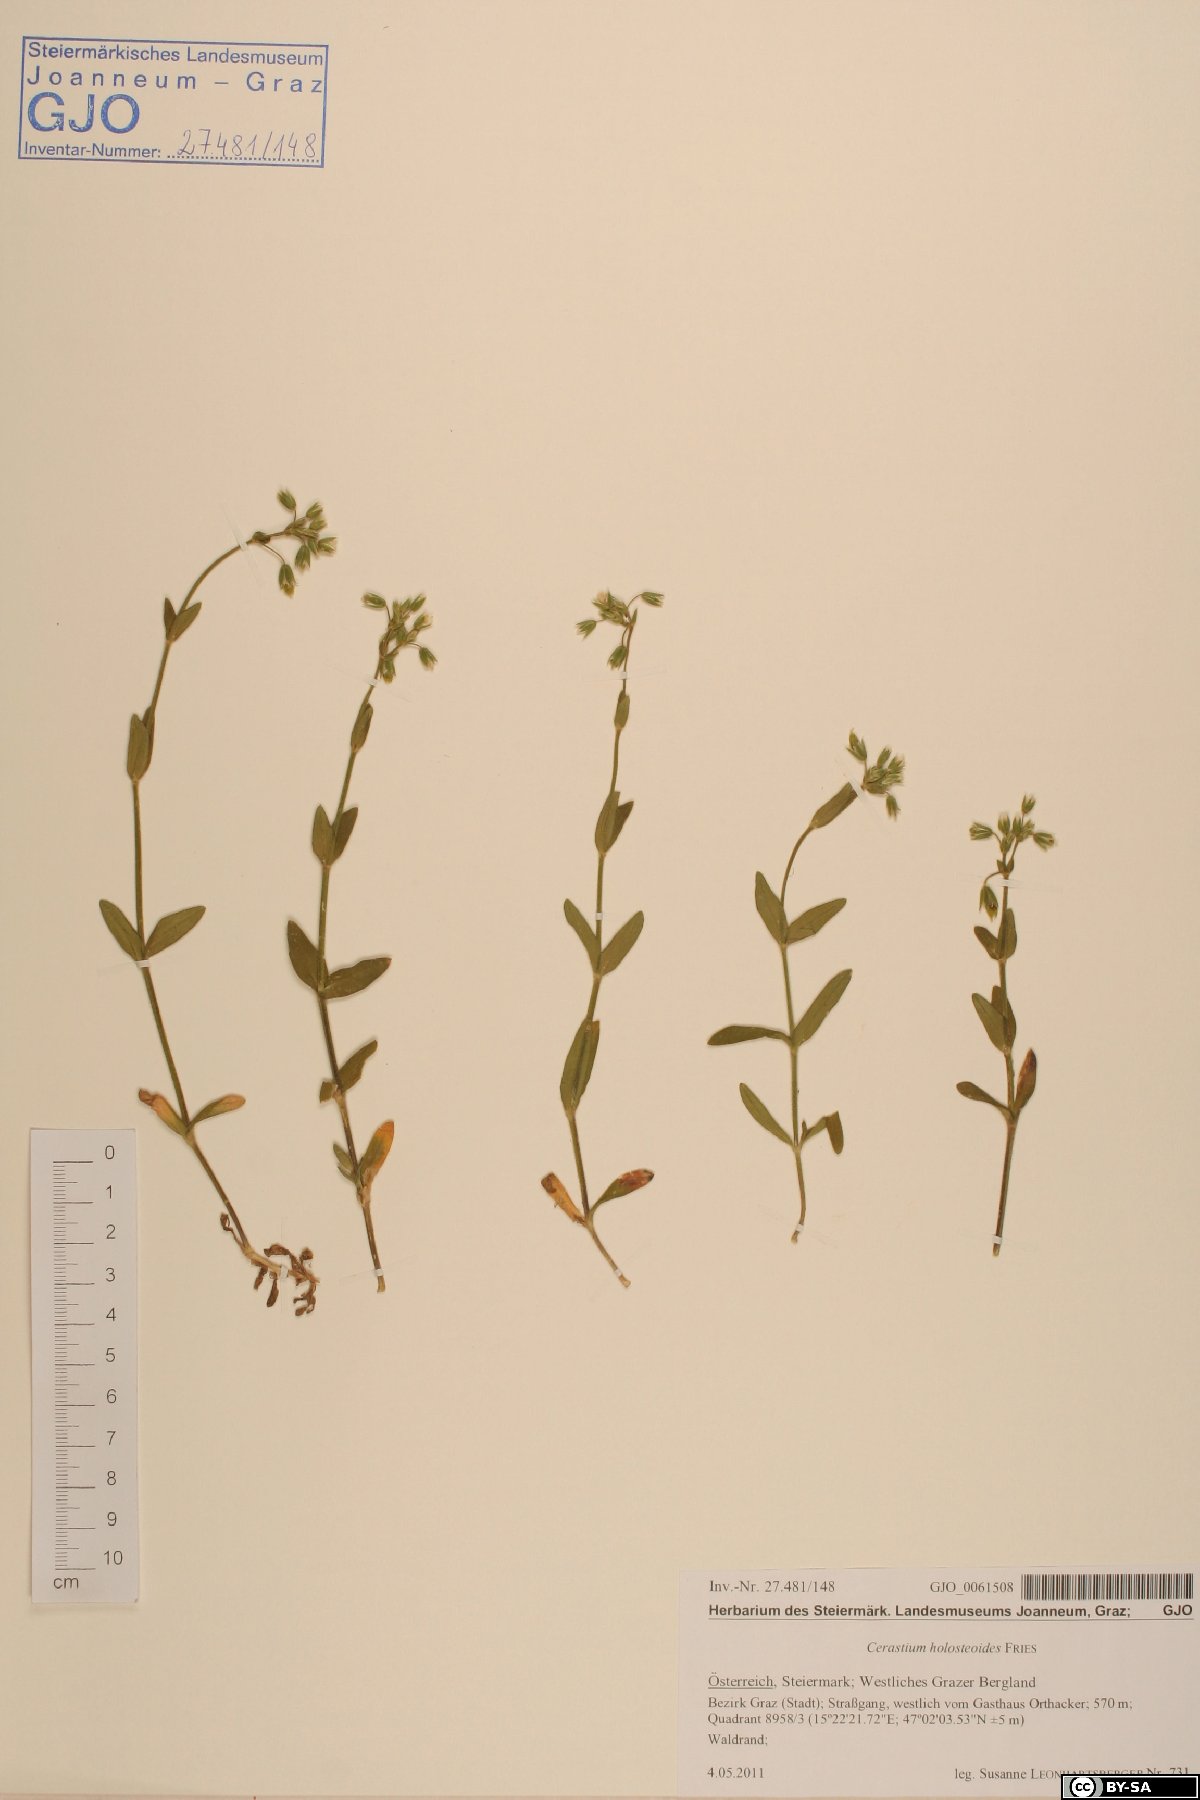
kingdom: Plantae
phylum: Tracheophyta
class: Magnoliopsida
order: Caryophyllales
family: Caryophyllaceae
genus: Cerastium
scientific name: Cerastium holosteoides
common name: Big chickweed
